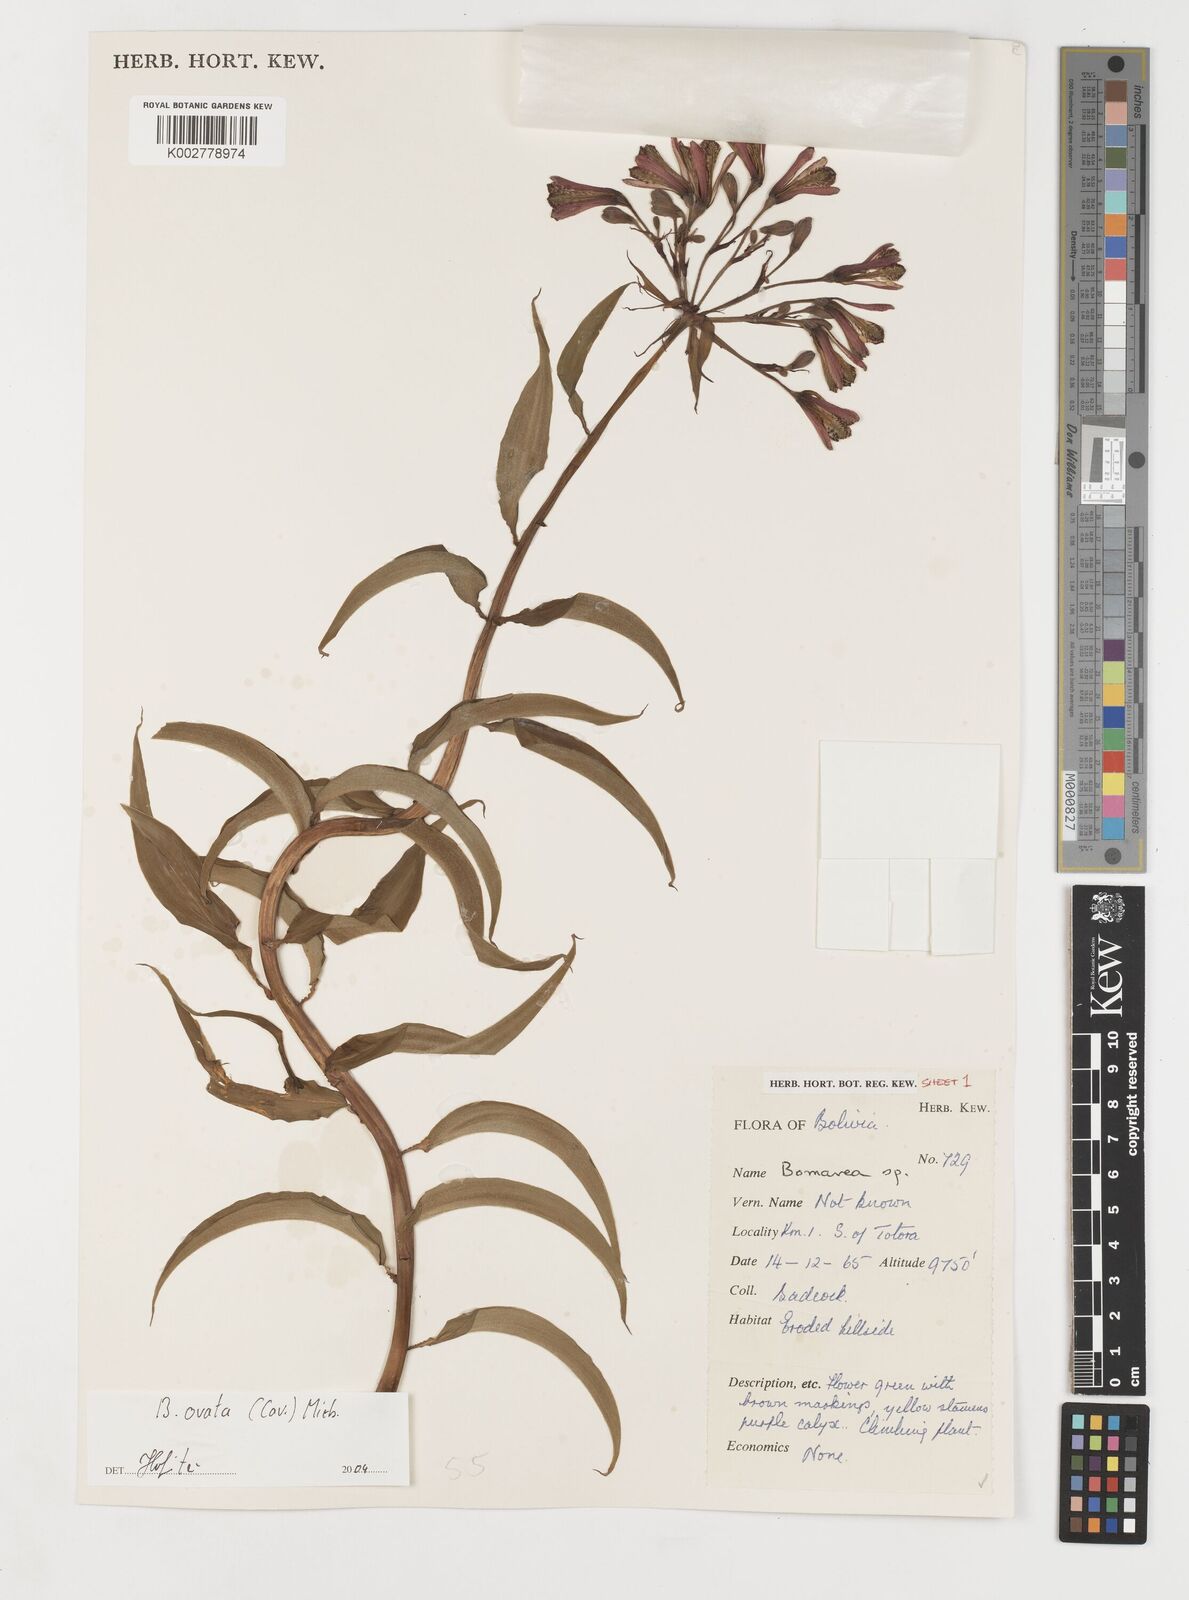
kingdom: Plantae
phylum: Tracheophyta
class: Liliopsida
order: Liliales
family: Alstroemeriaceae
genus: Bomarea
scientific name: Bomarea ovata
